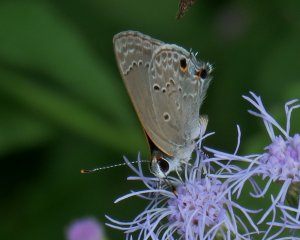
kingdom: Animalia
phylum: Arthropoda
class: Insecta
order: Lepidoptera
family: Lycaenidae
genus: Callicista
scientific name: Callicista columella
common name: Mallow Scrub-Hairstreak
